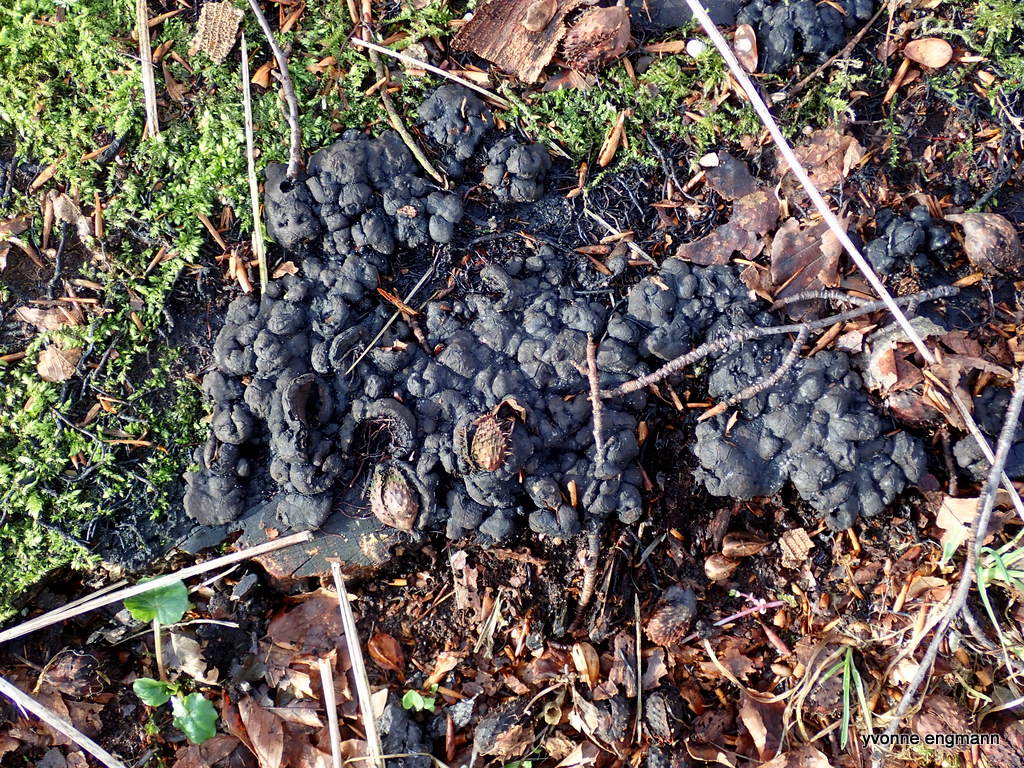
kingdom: Fungi
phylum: Ascomycota
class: Sordariomycetes
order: Xylariales
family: Xylariaceae
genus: Kretzschmaria
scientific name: Kretzschmaria deusta
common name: stor kulsvamp
